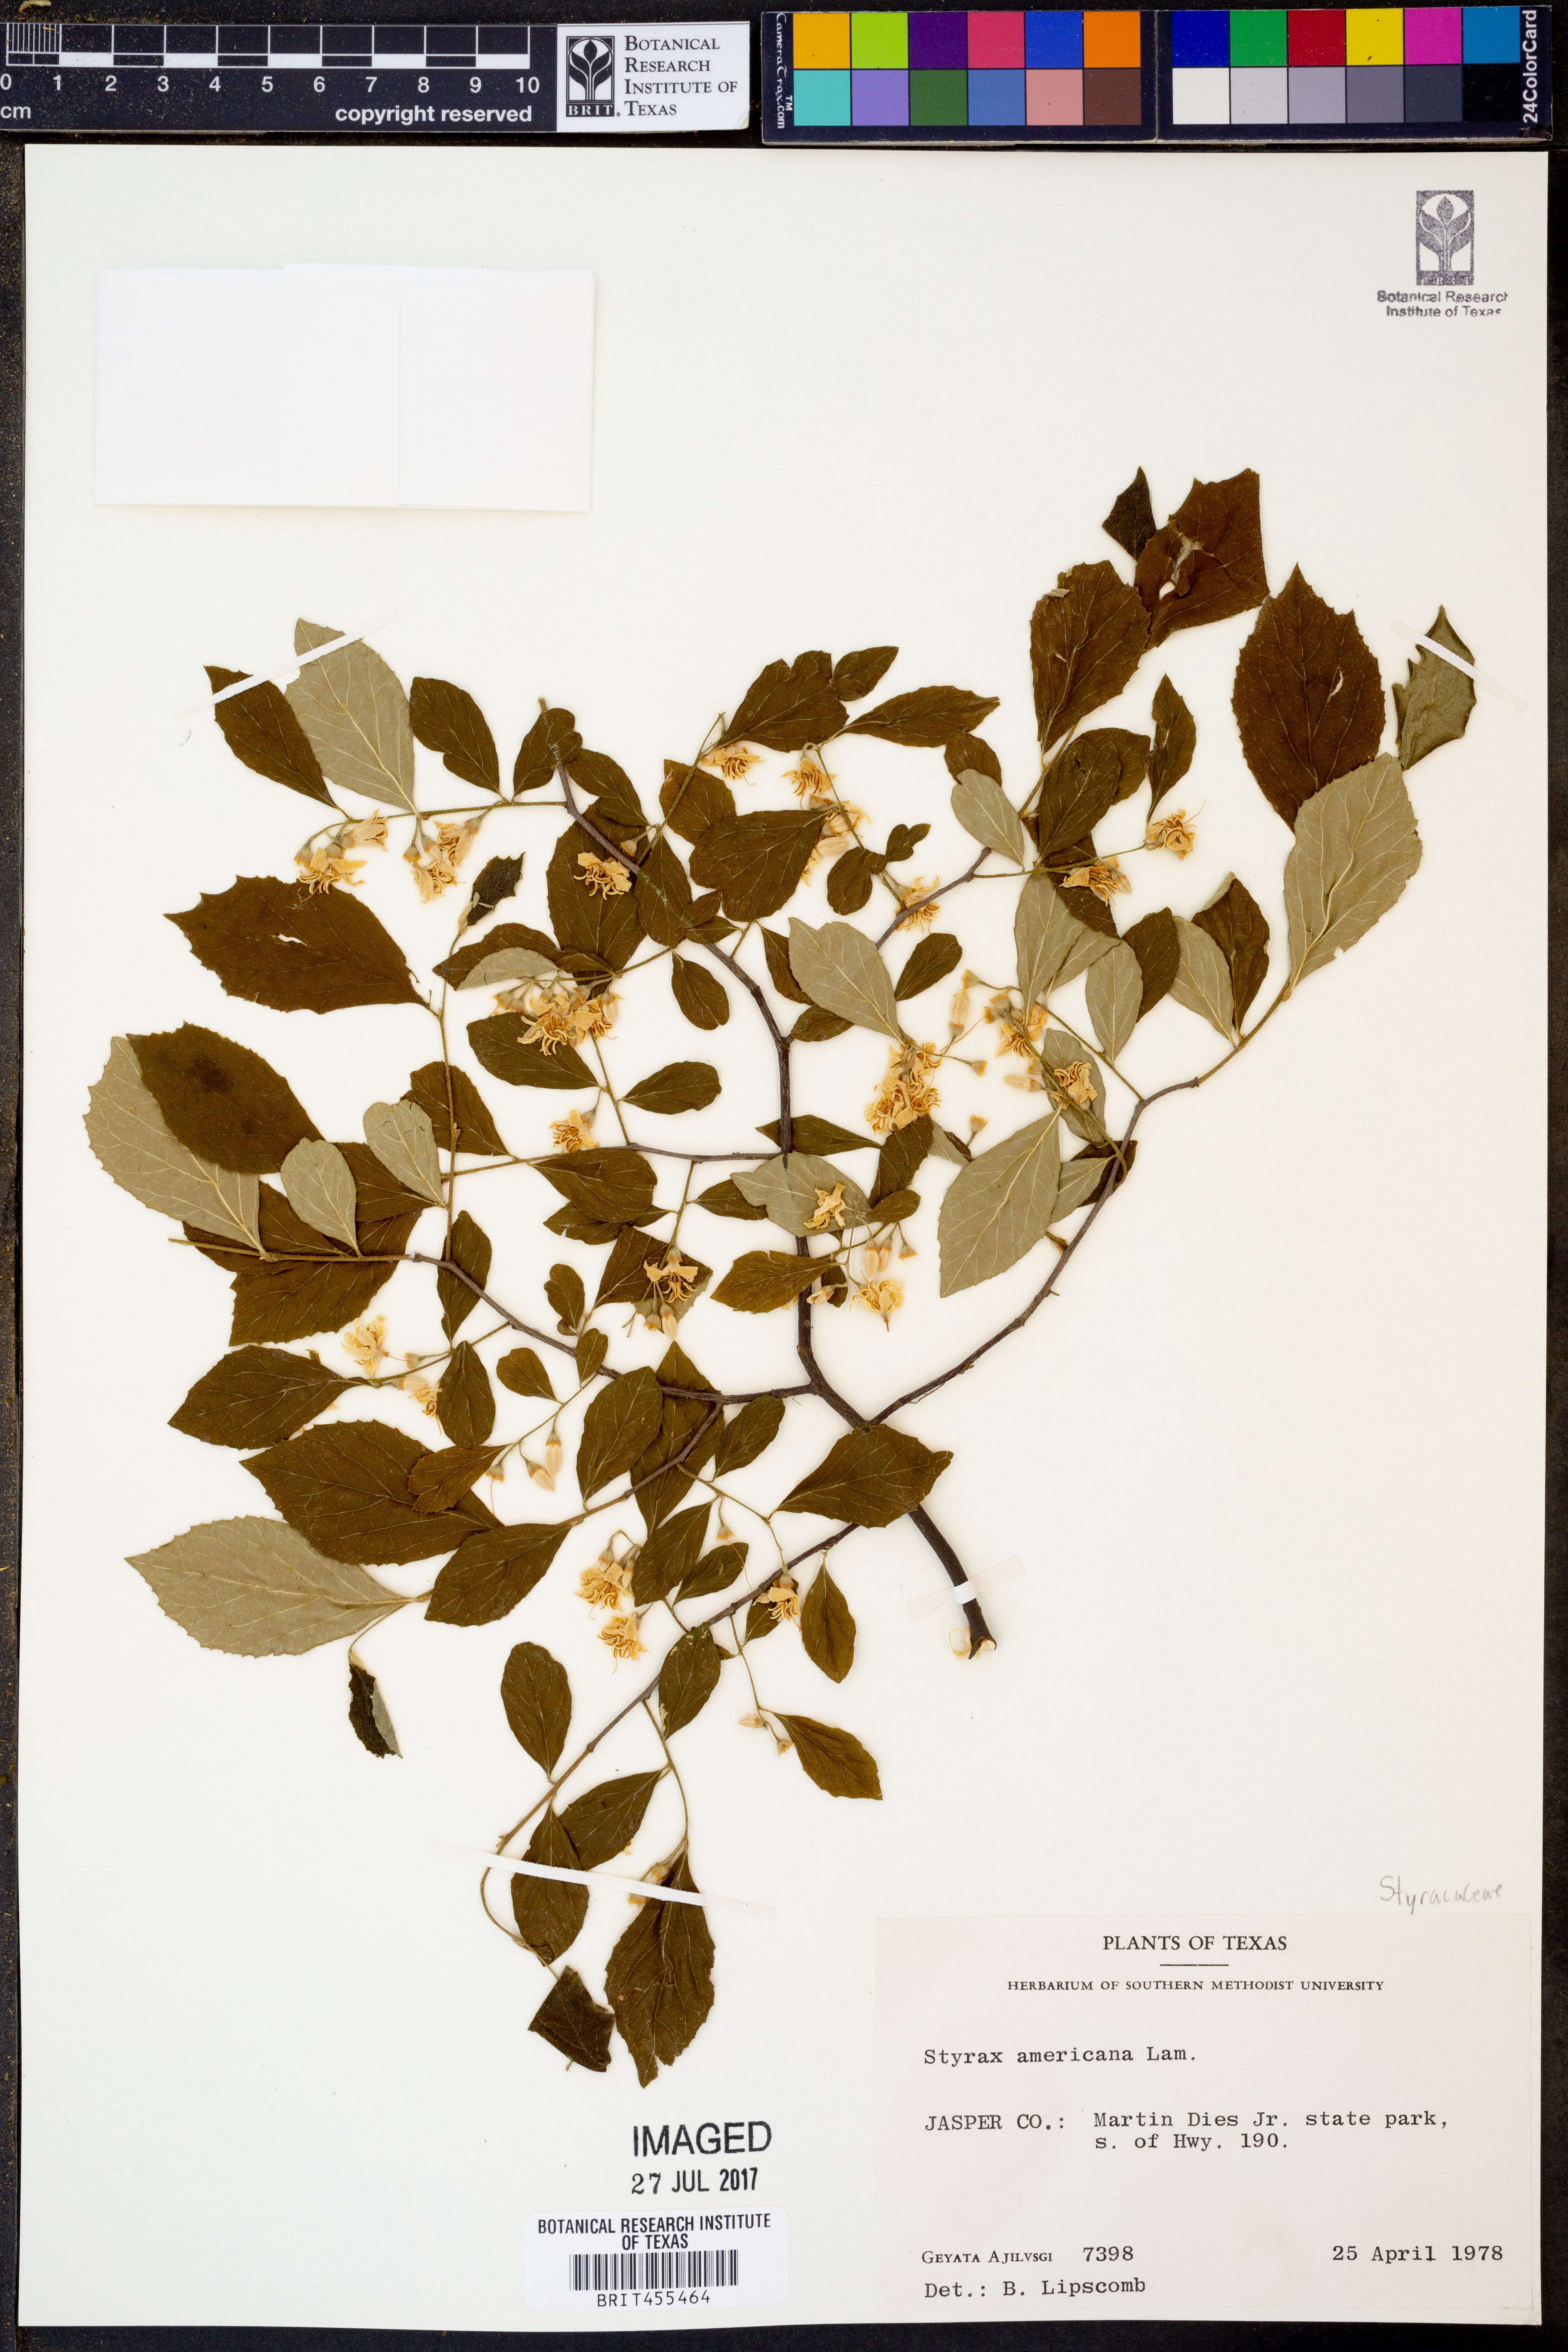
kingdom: Plantae
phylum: Tracheophyta
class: Magnoliopsida
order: Ericales
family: Styracaceae
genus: Styrax
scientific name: Styrax americanus
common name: American snowbell
